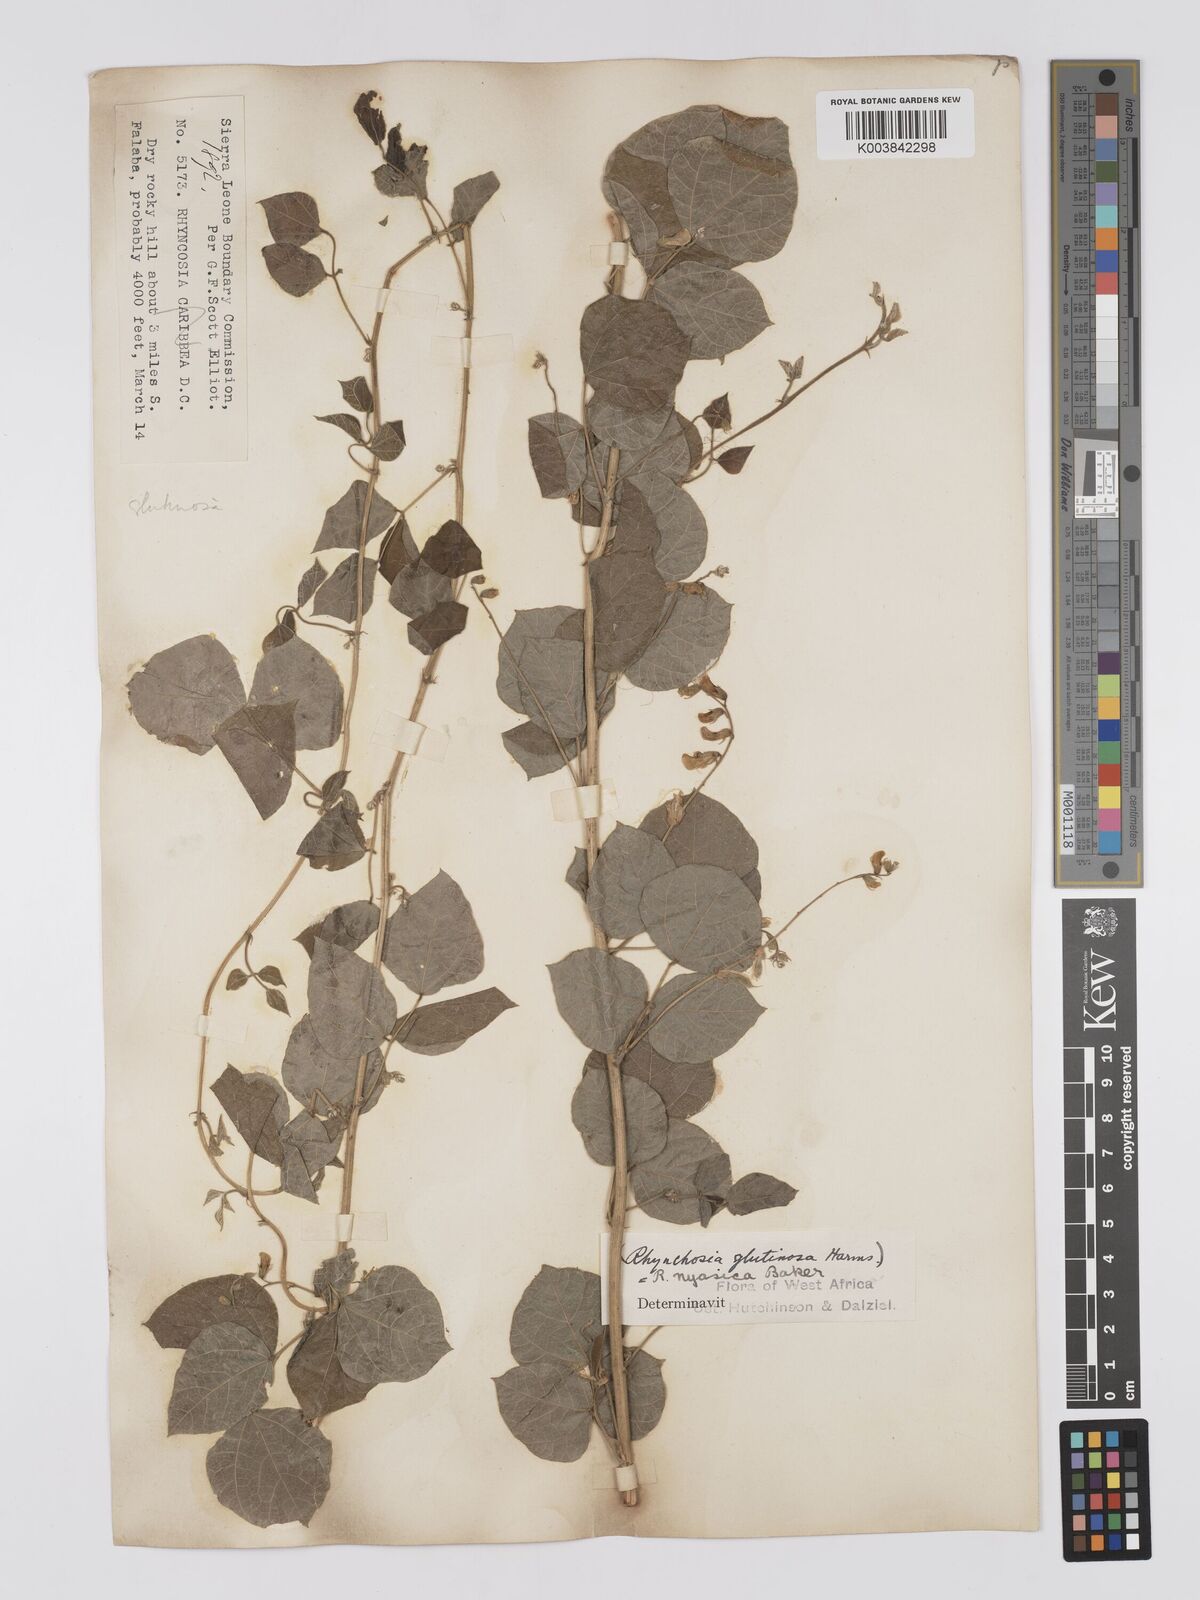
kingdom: Plantae
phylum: Tracheophyta
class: Magnoliopsida
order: Fabales
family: Fabaceae
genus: Rhynchosia
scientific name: Rhynchosia nyasica
